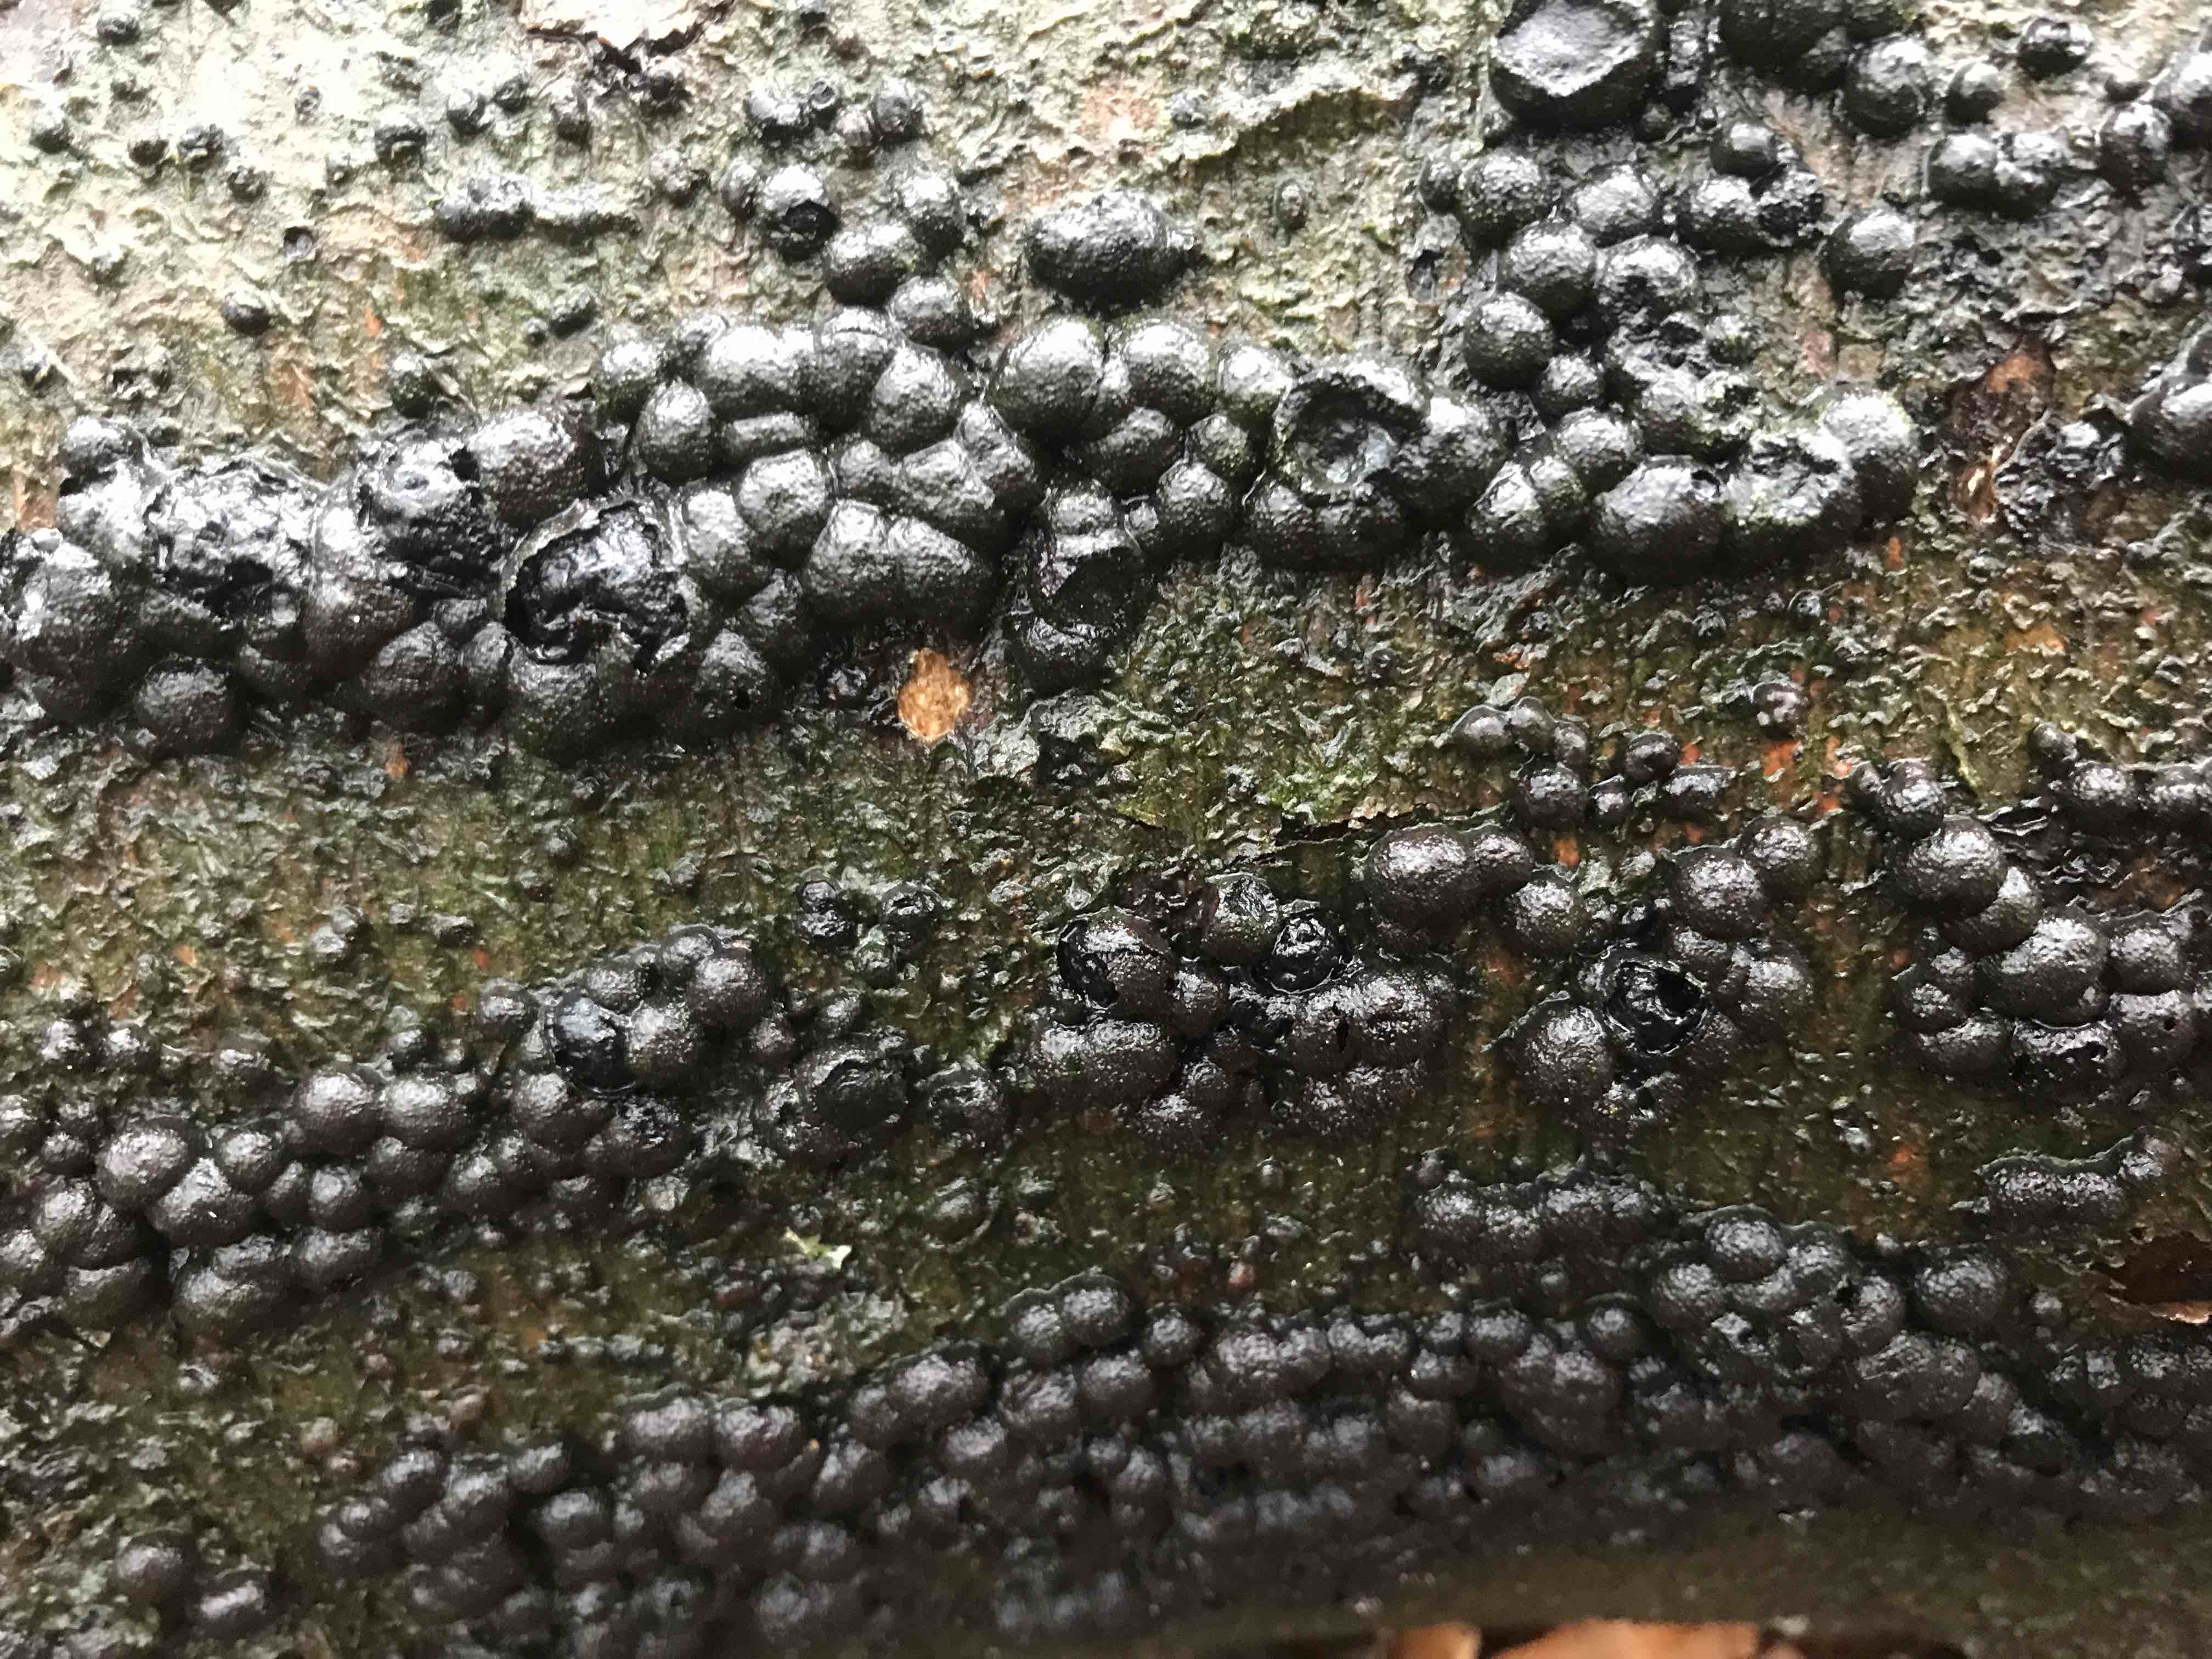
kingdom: Fungi
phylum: Ascomycota
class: Sordariomycetes
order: Xylariales
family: Hypoxylaceae
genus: Hypoxylon
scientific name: Hypoxylon fragiforme
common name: kuljordbær
